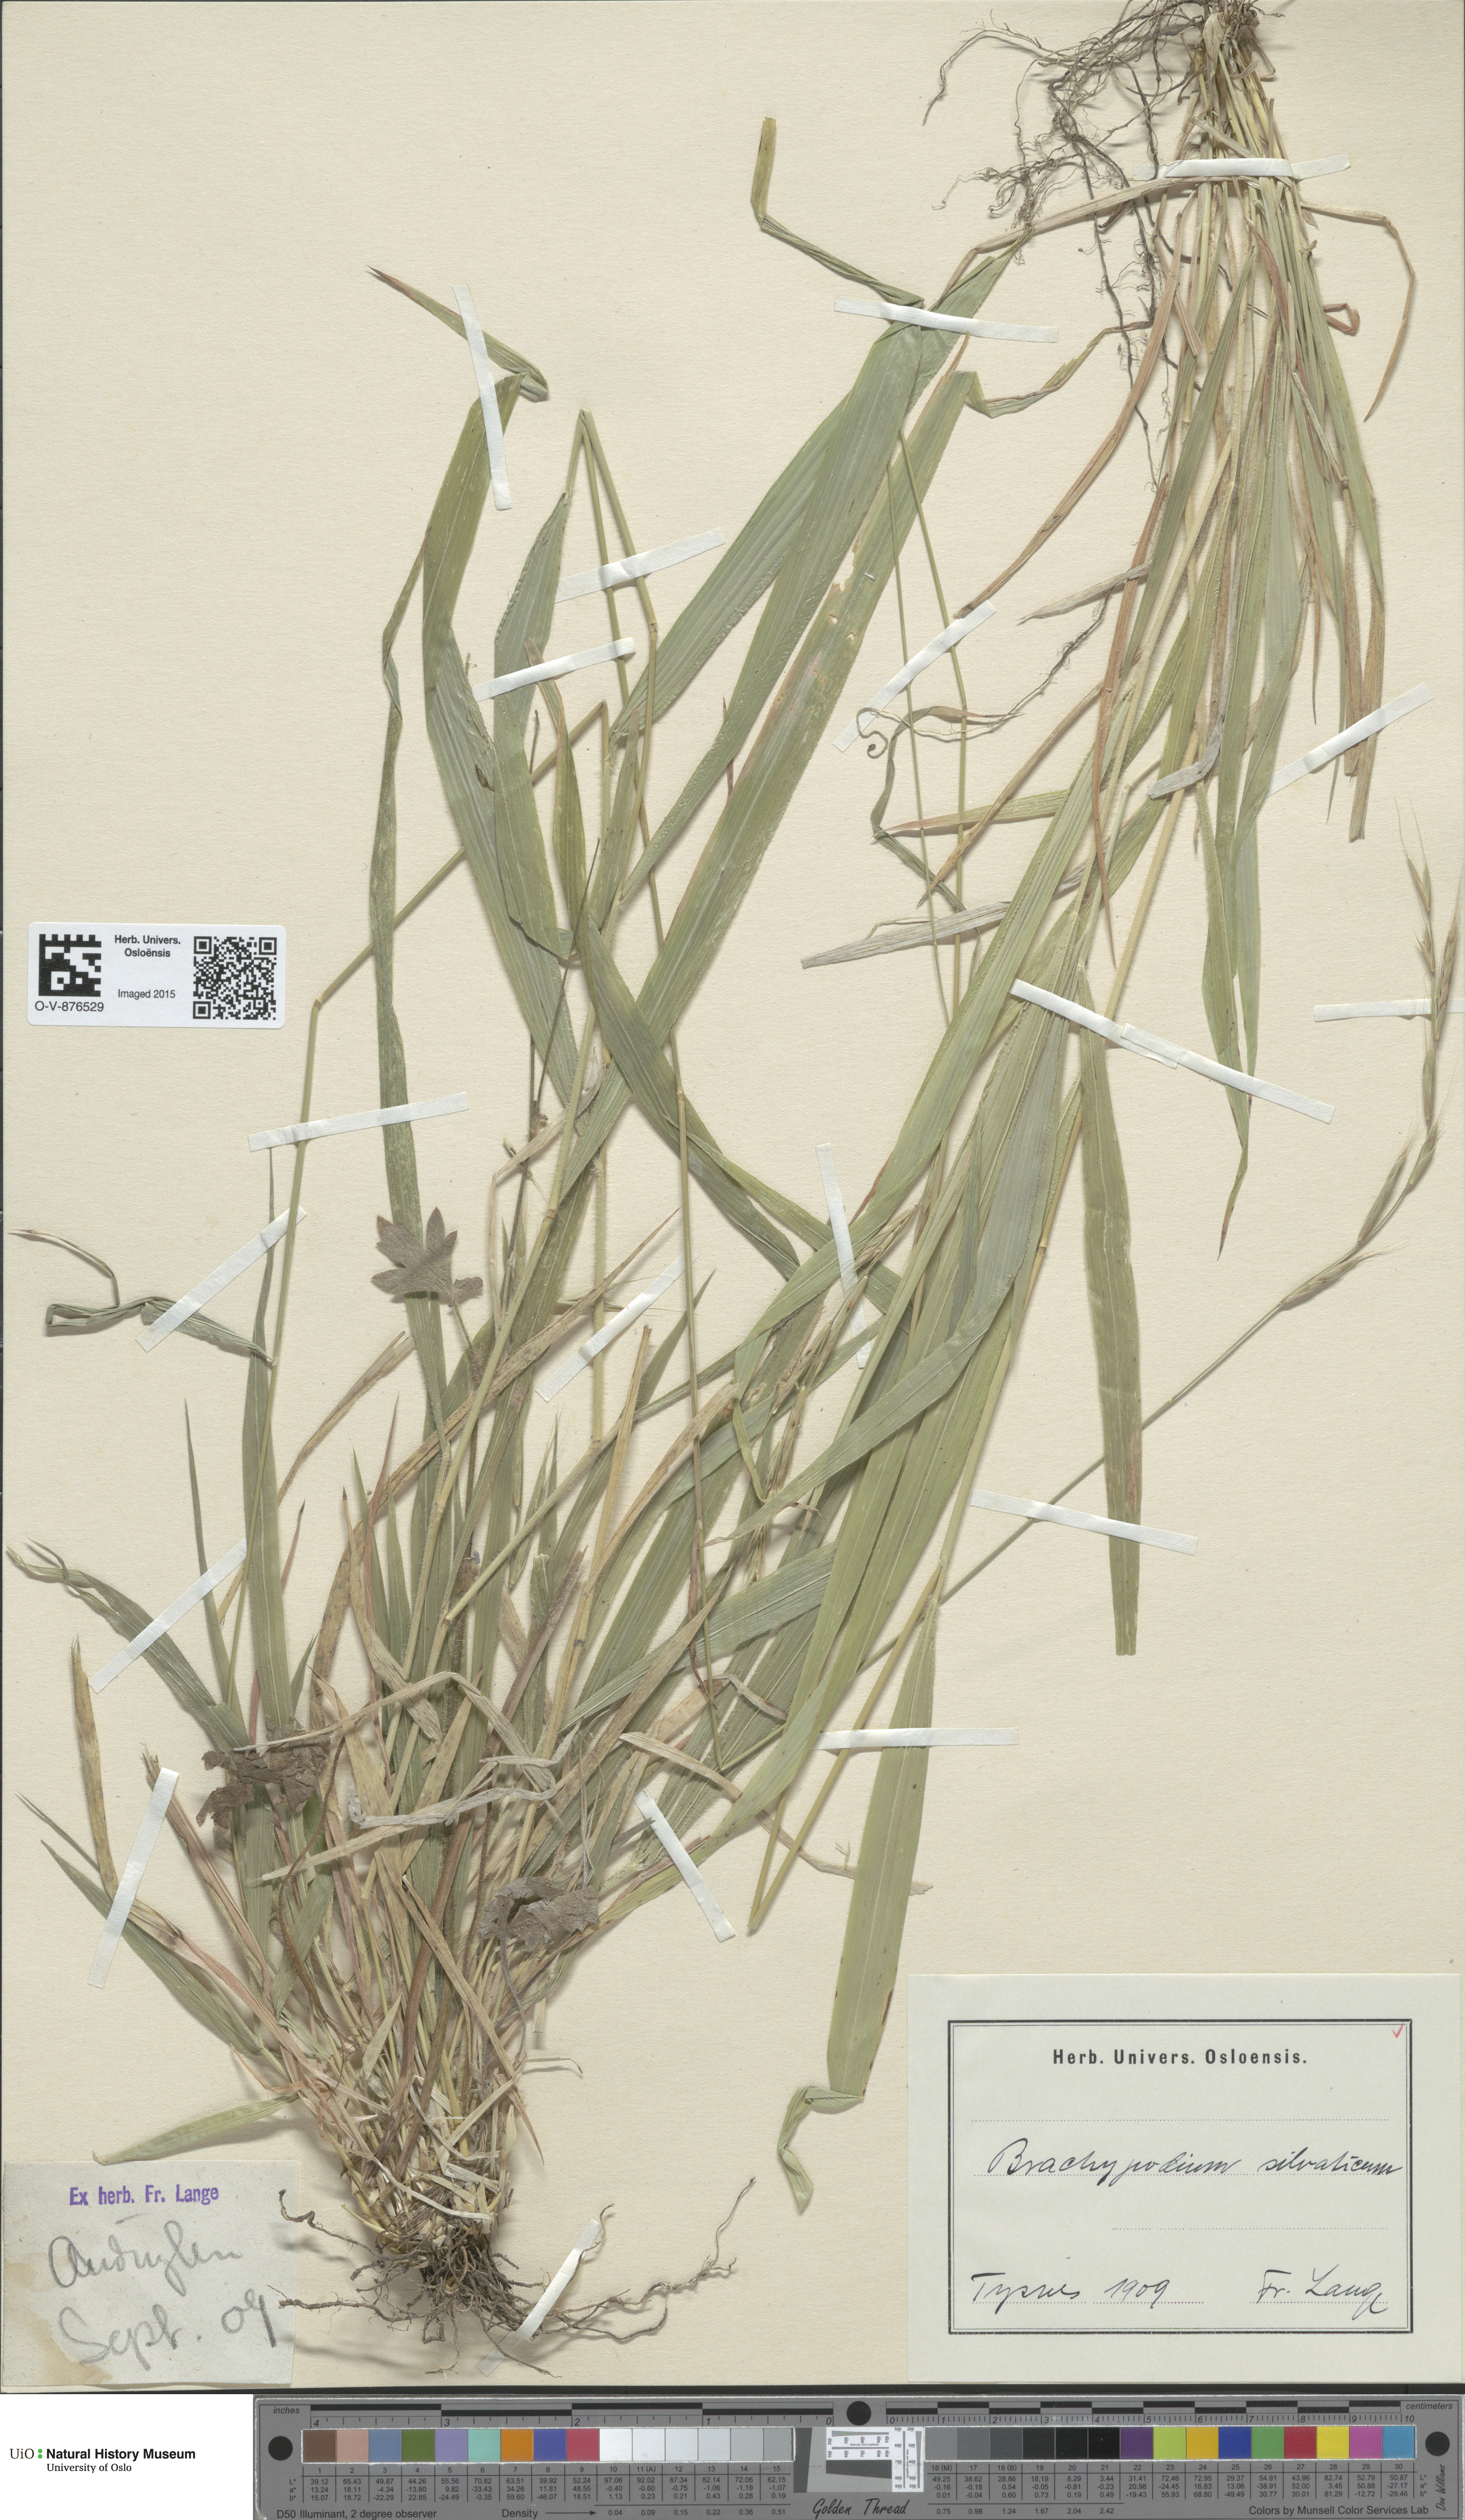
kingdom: Plantae
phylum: Tracheophyta
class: Liliopsida
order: Poales
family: Poaceae
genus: Brachypodium
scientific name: Brachypodium sylvaticum
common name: False-brome
